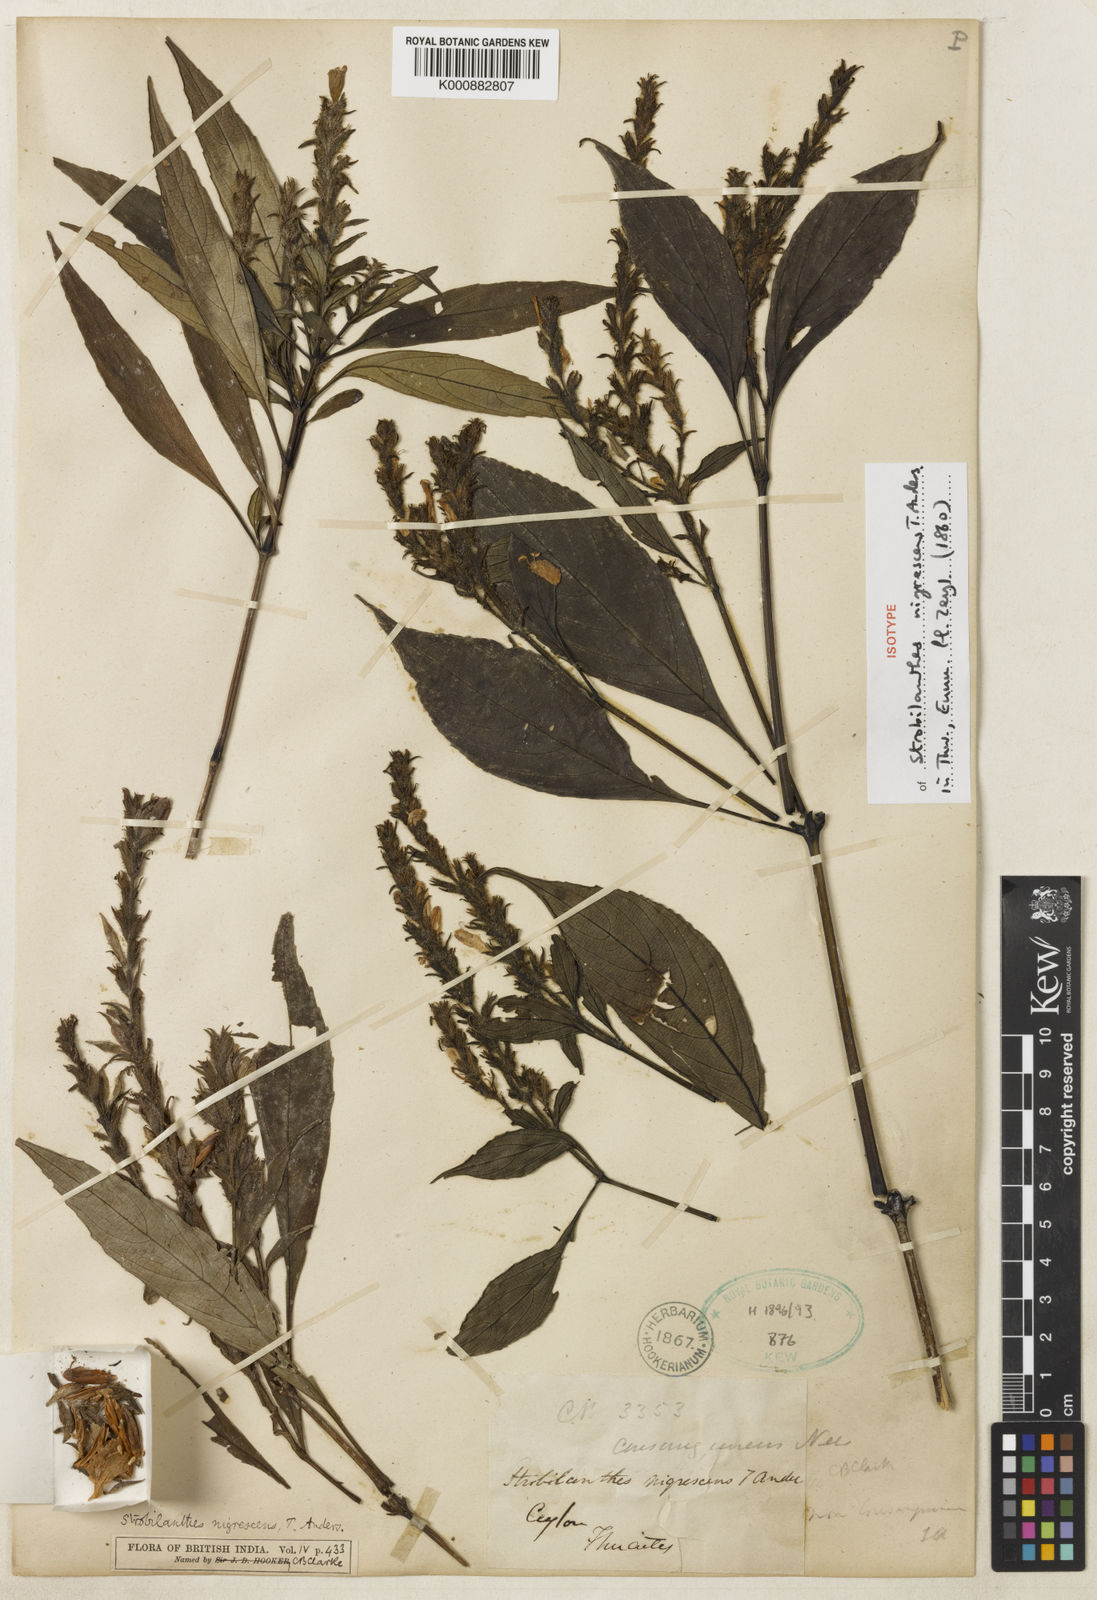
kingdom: Plantae
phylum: Tracheophyta
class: Magnoliopsida
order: Lamiales
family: Acanthaceae
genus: Strobilanthes
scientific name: Strobilanthes nigrescens
